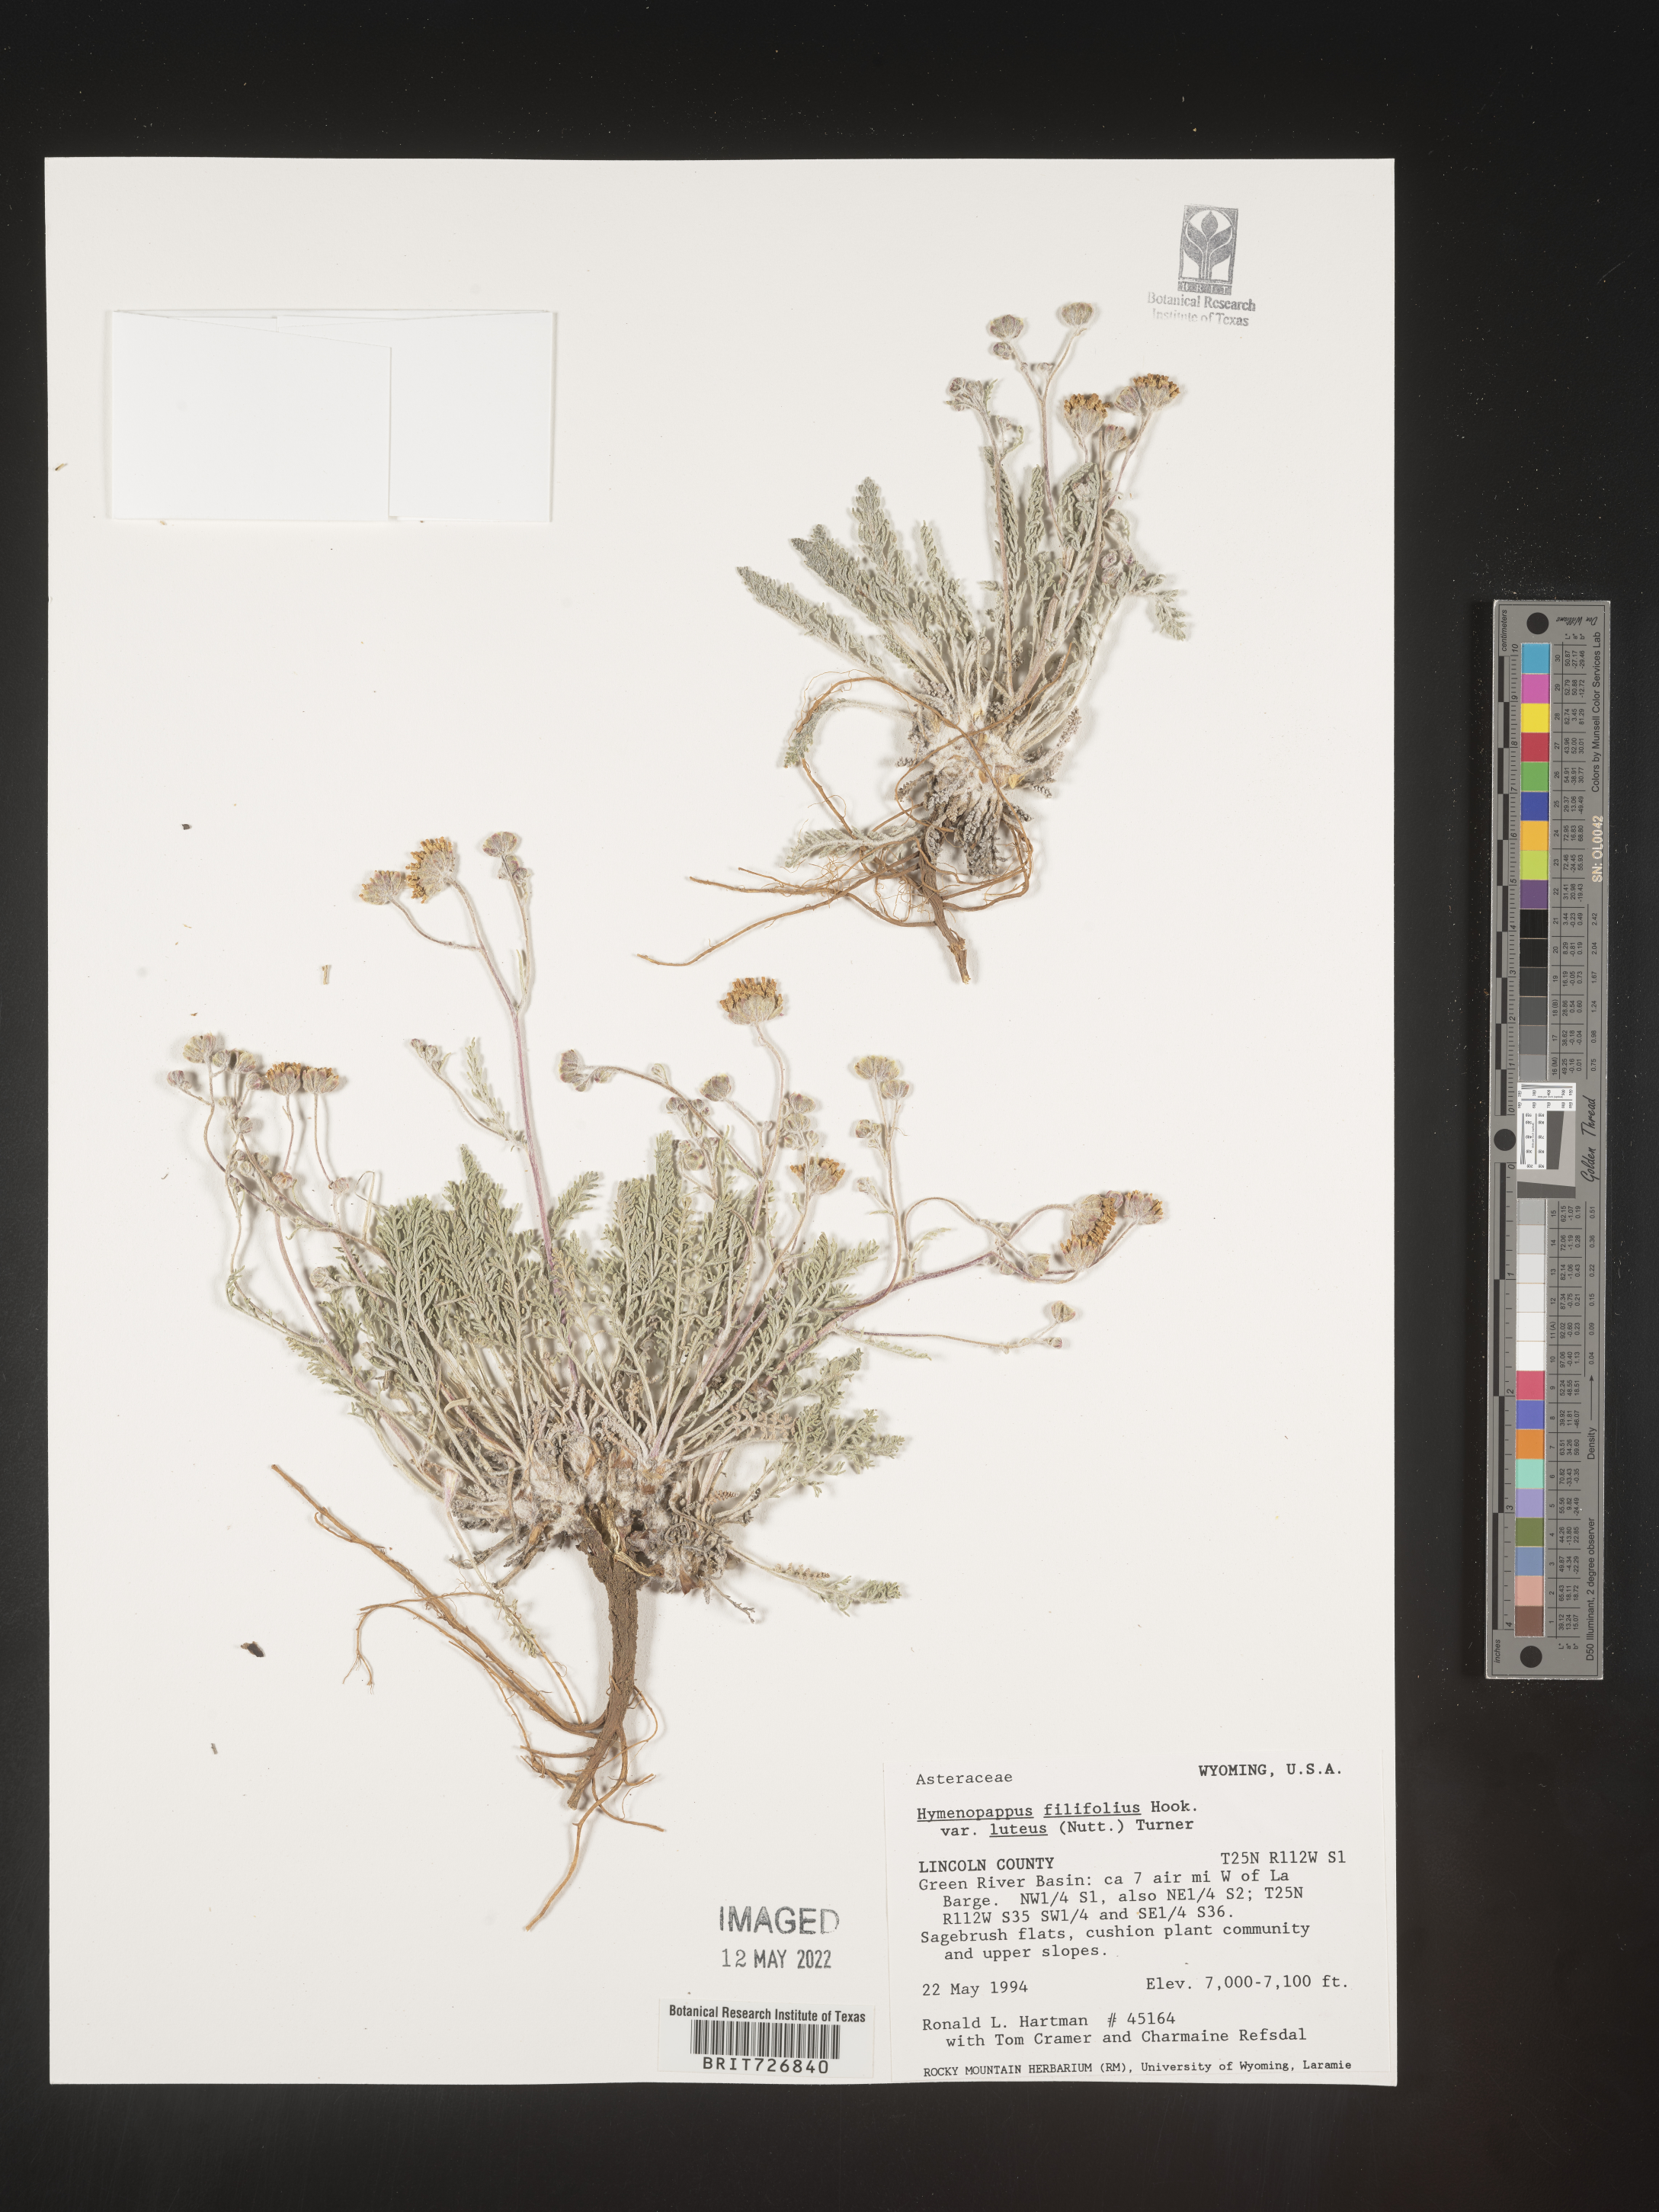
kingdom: Plantae
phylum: Tracheophyta
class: Magnoliopsida
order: Asterales
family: Asteraceae
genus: Hymenopappus
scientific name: Hymenopappus filifolius
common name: Columbia cutleaf
